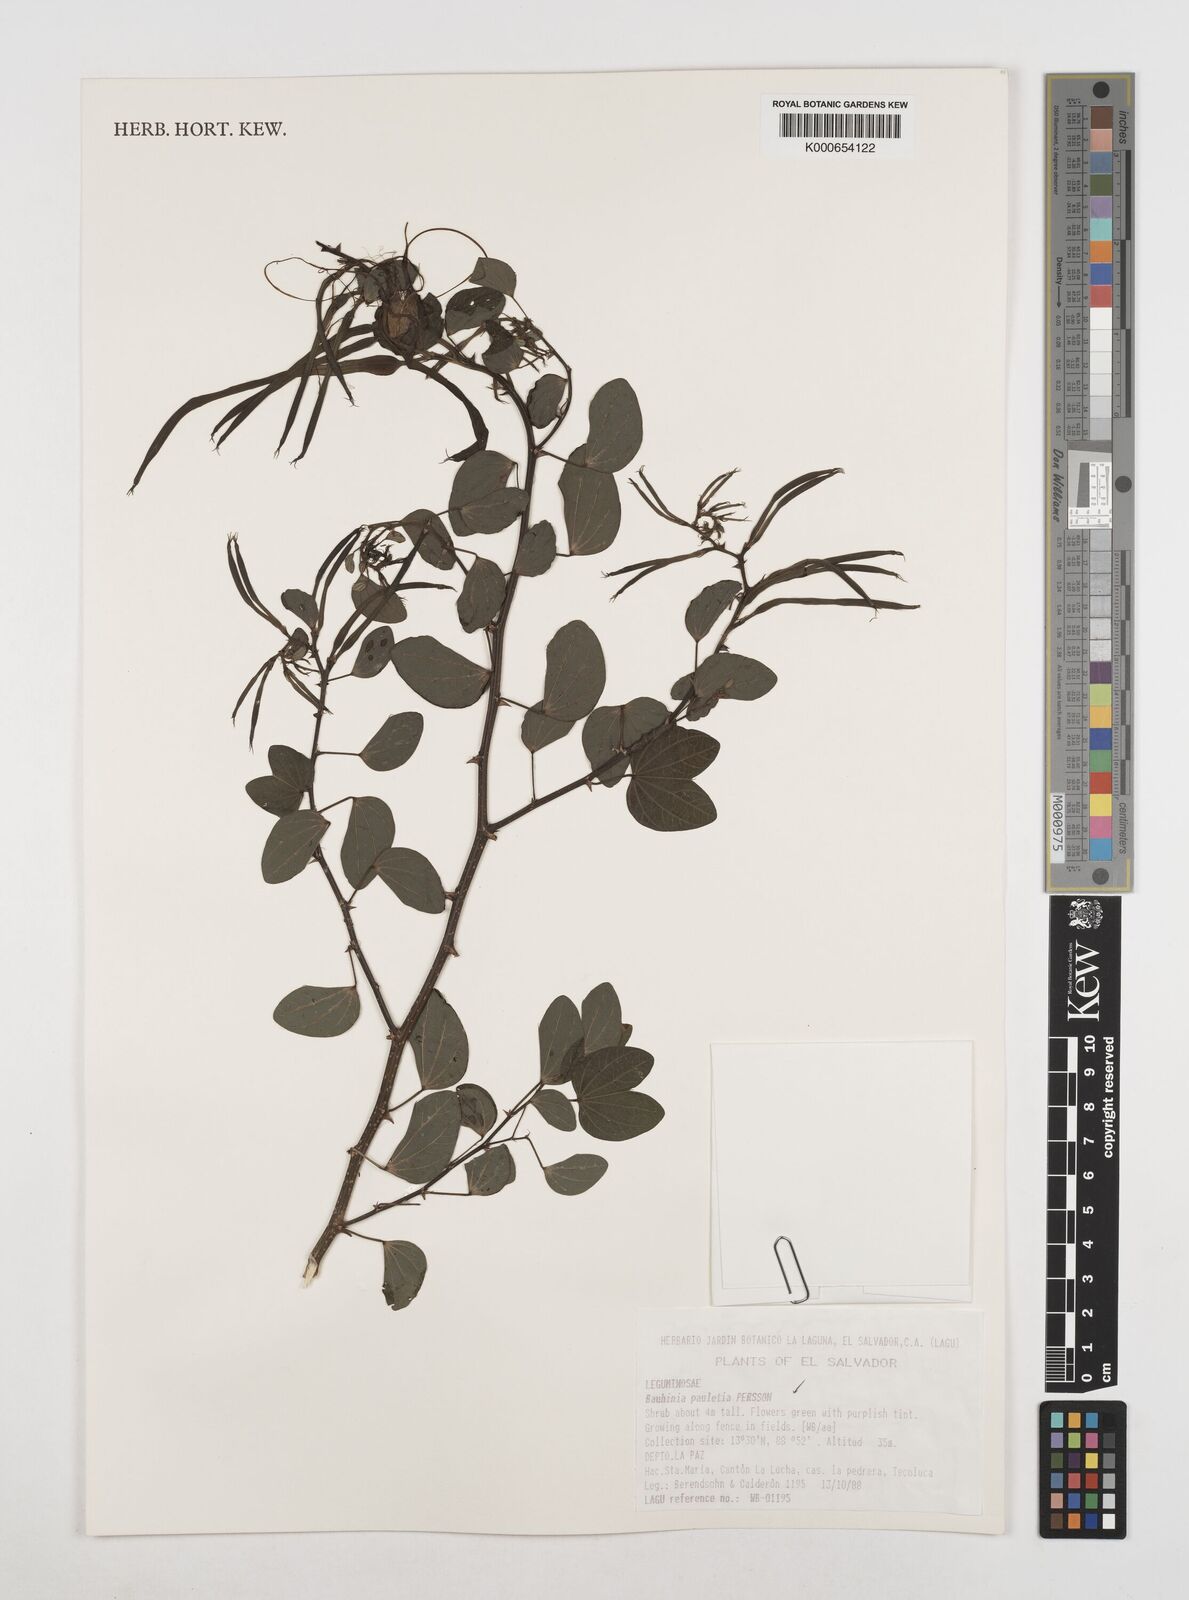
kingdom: Plantae
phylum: Tracheophyta
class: Magnoliopsida
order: Fabales
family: Fabaceae
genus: Bauhinia
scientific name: Bauhinia pauletia
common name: Railway-fence bauhinia
